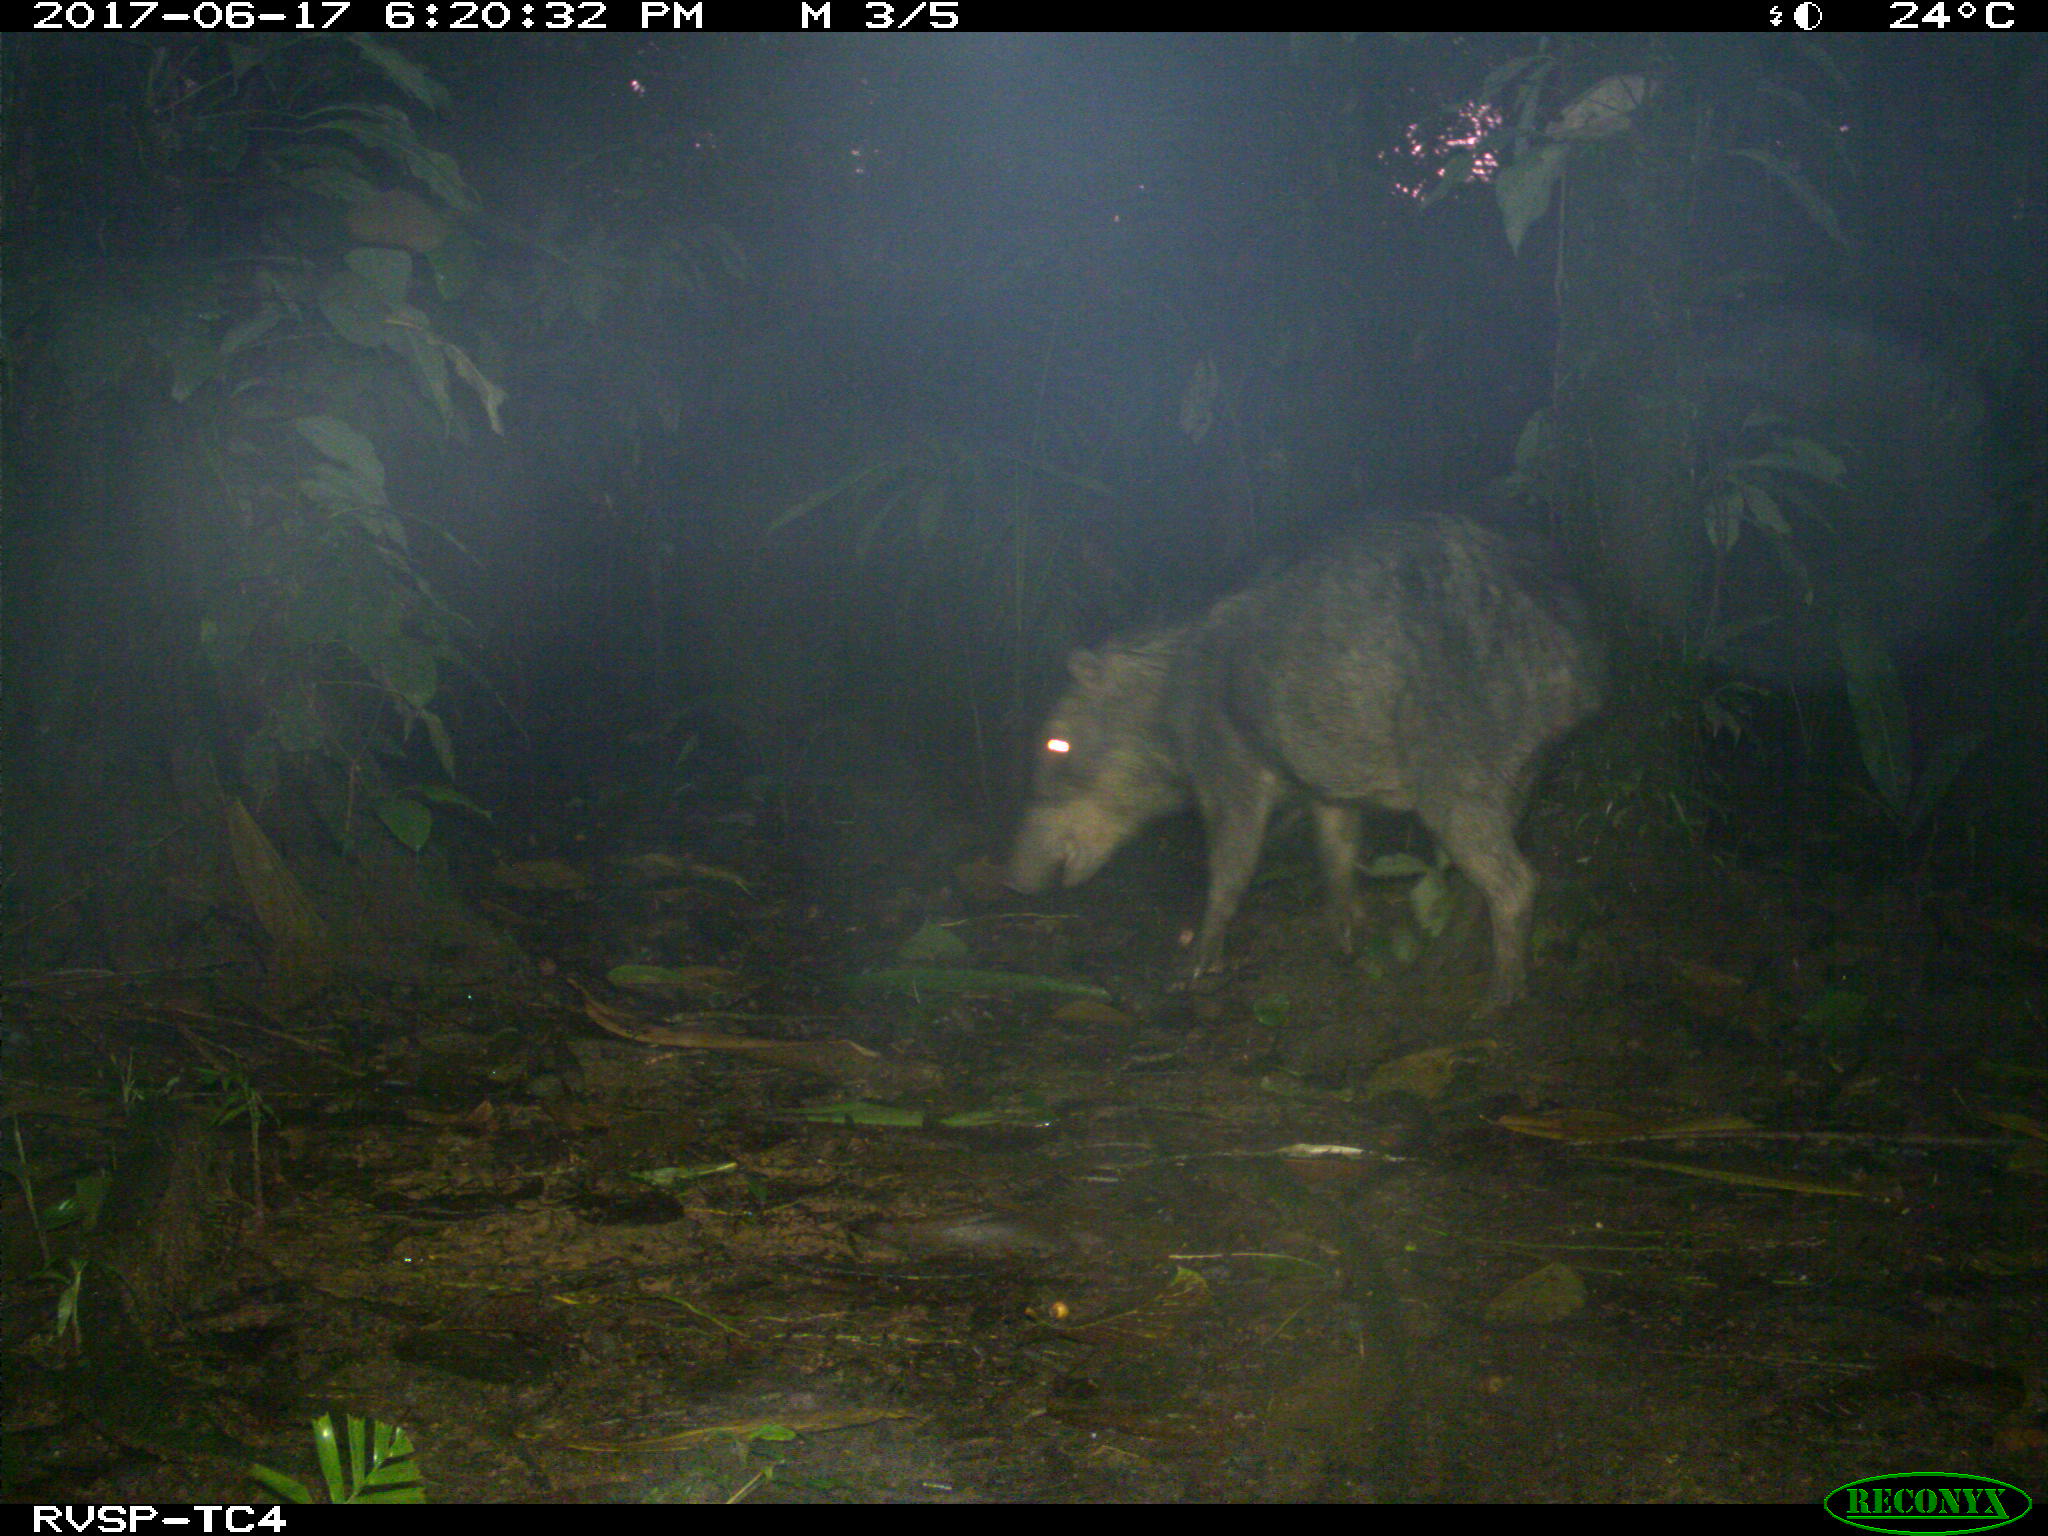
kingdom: Animalia
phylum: Chordata
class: Mammalia
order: Artiodactyla
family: Tayassuidae
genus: Tayassu
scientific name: Tayassu pecari
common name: White-lipped peccary
